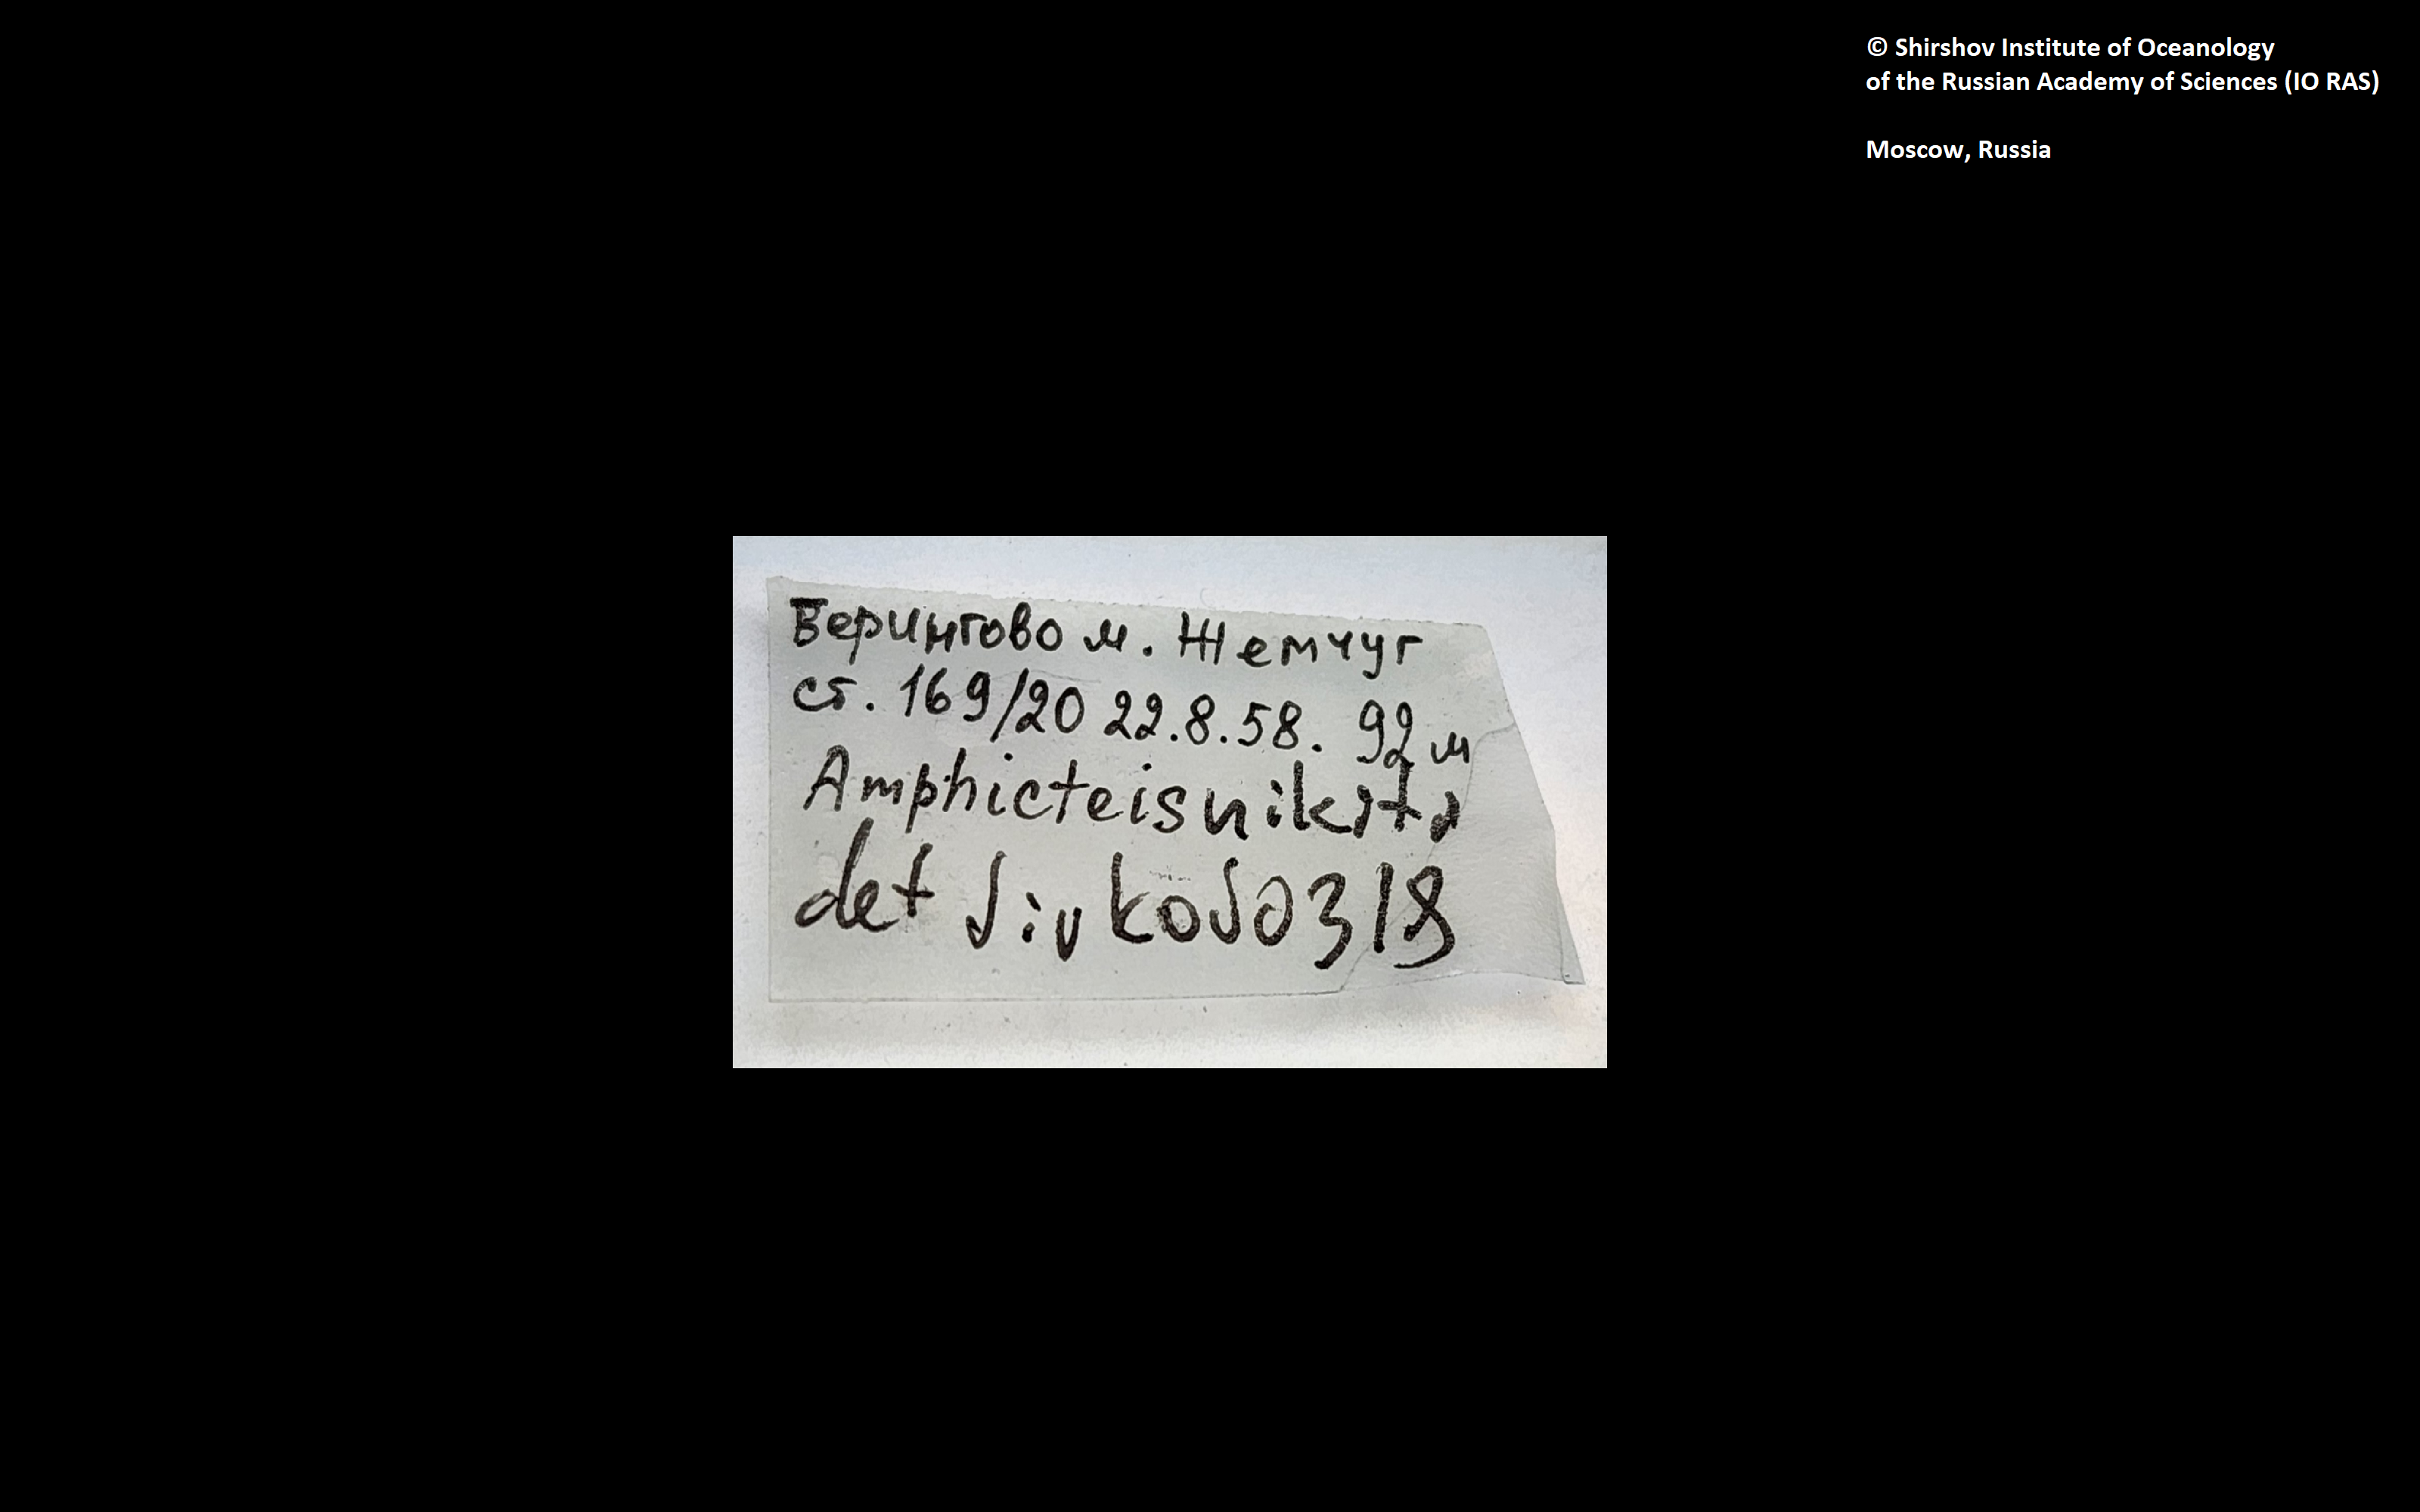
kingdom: Animalia
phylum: Annelida
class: Polychaeta
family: Ampharetidae
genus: Amphicteis
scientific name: Amphicteis nikiti
